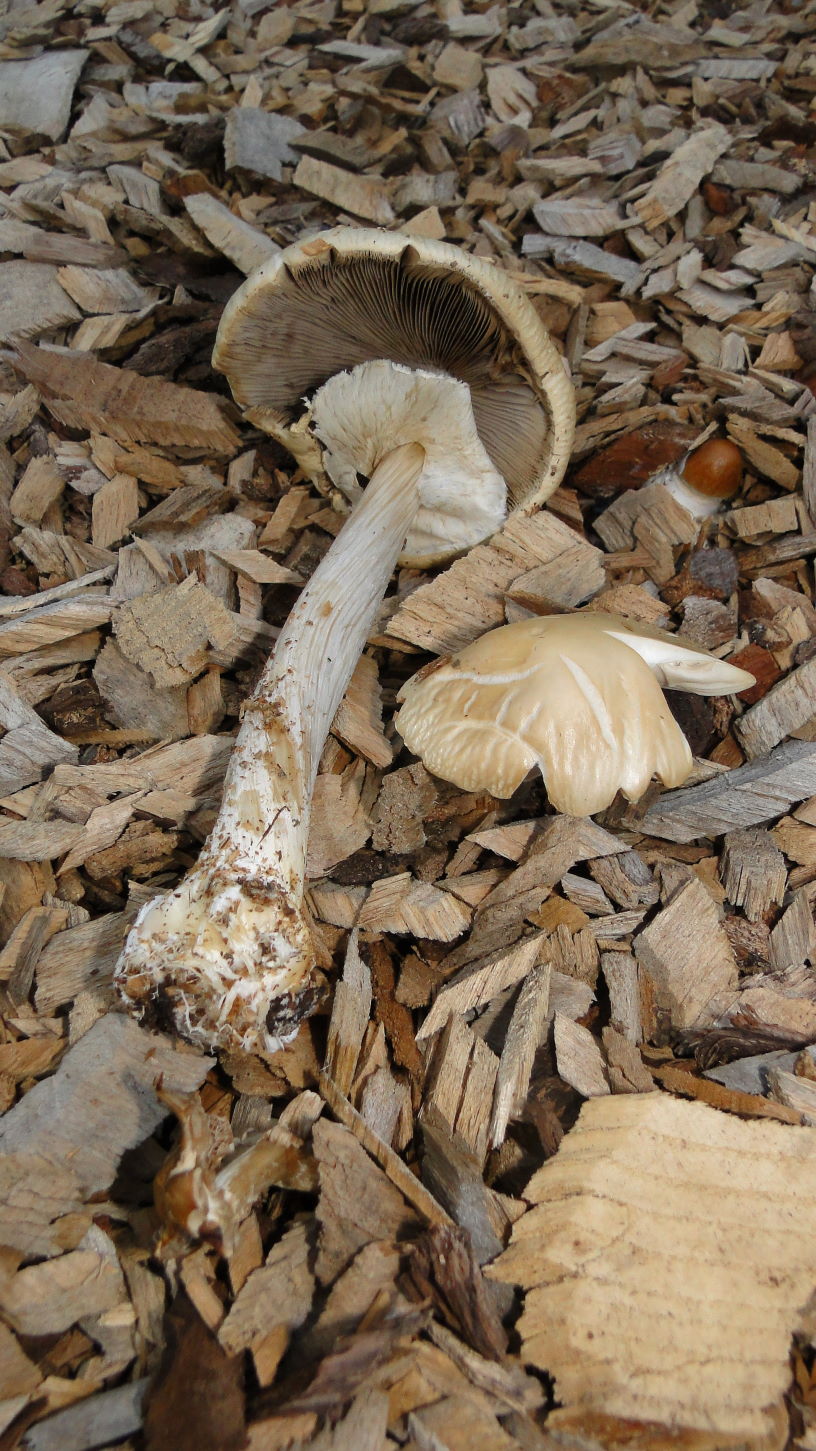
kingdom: Fungi
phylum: Basidiomycota
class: Agaricomycetes
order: Agaricales
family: Strophariaceae
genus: Agrocybe
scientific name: Agrocybe rivulosa
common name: året agerhat
